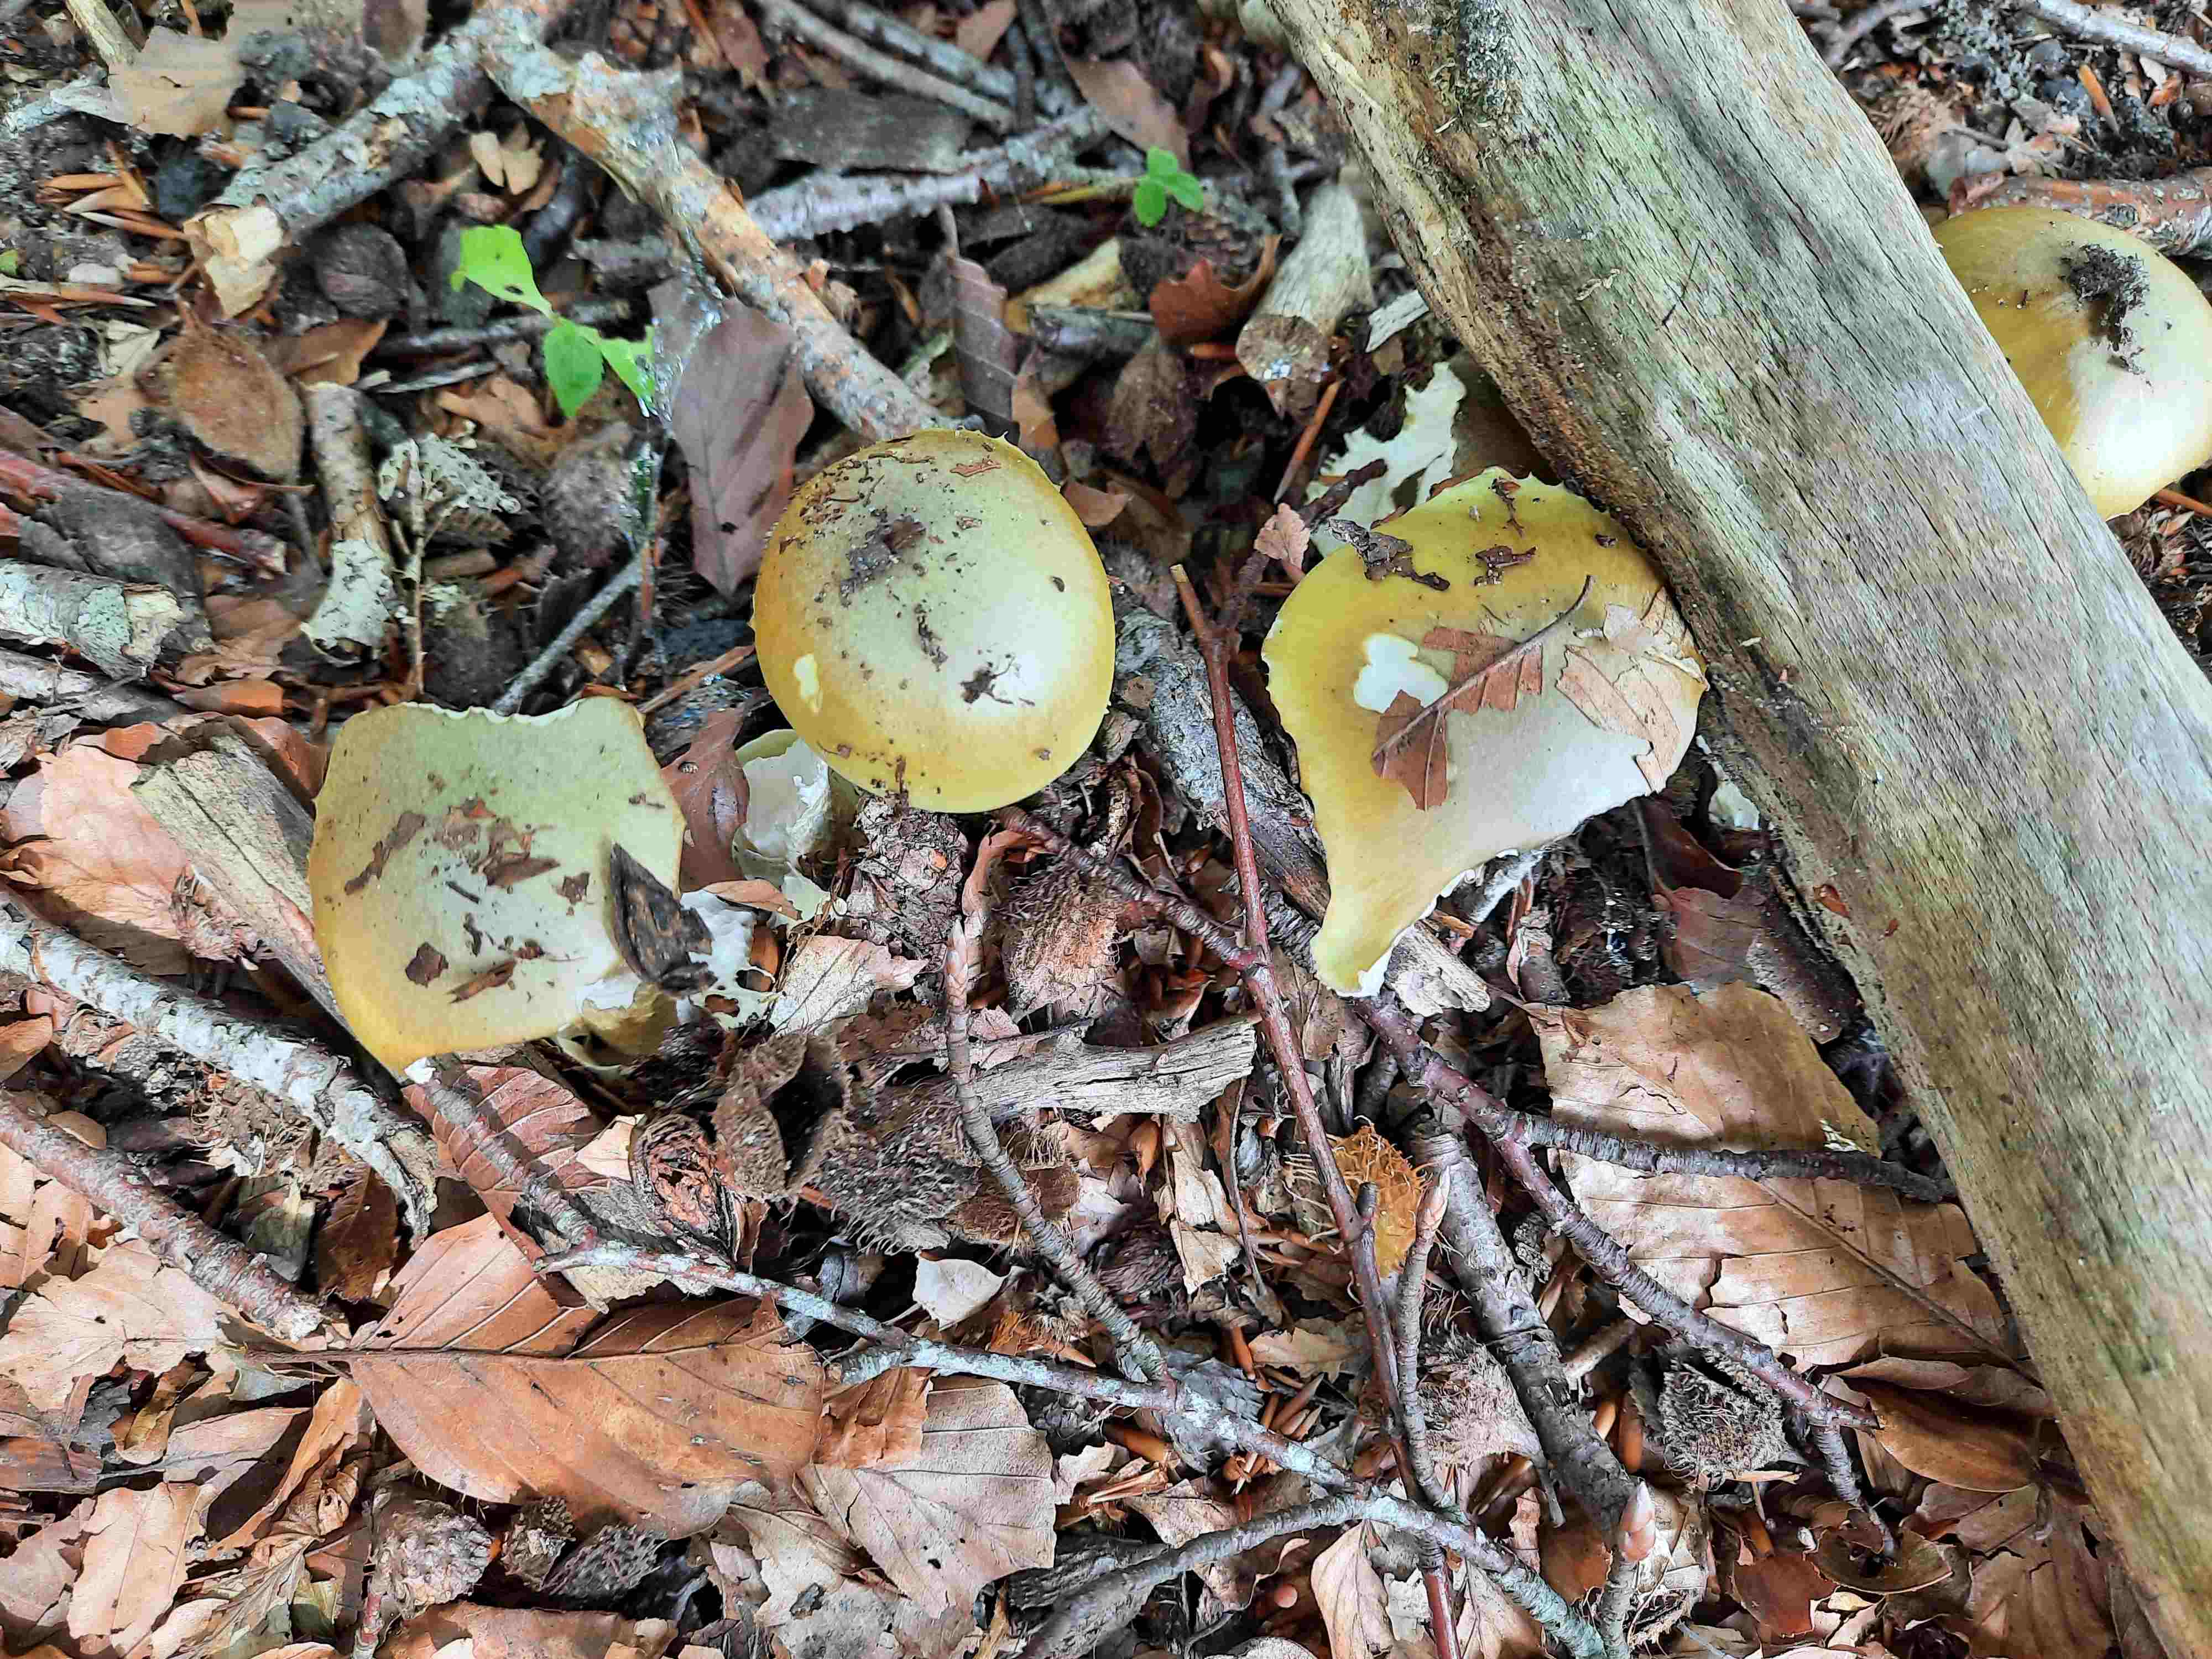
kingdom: Fungi
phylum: Basidiomycota
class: Agaricomycetes
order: Agaricales
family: Amanitaceae
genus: Amanita
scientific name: Amanita phalloides
